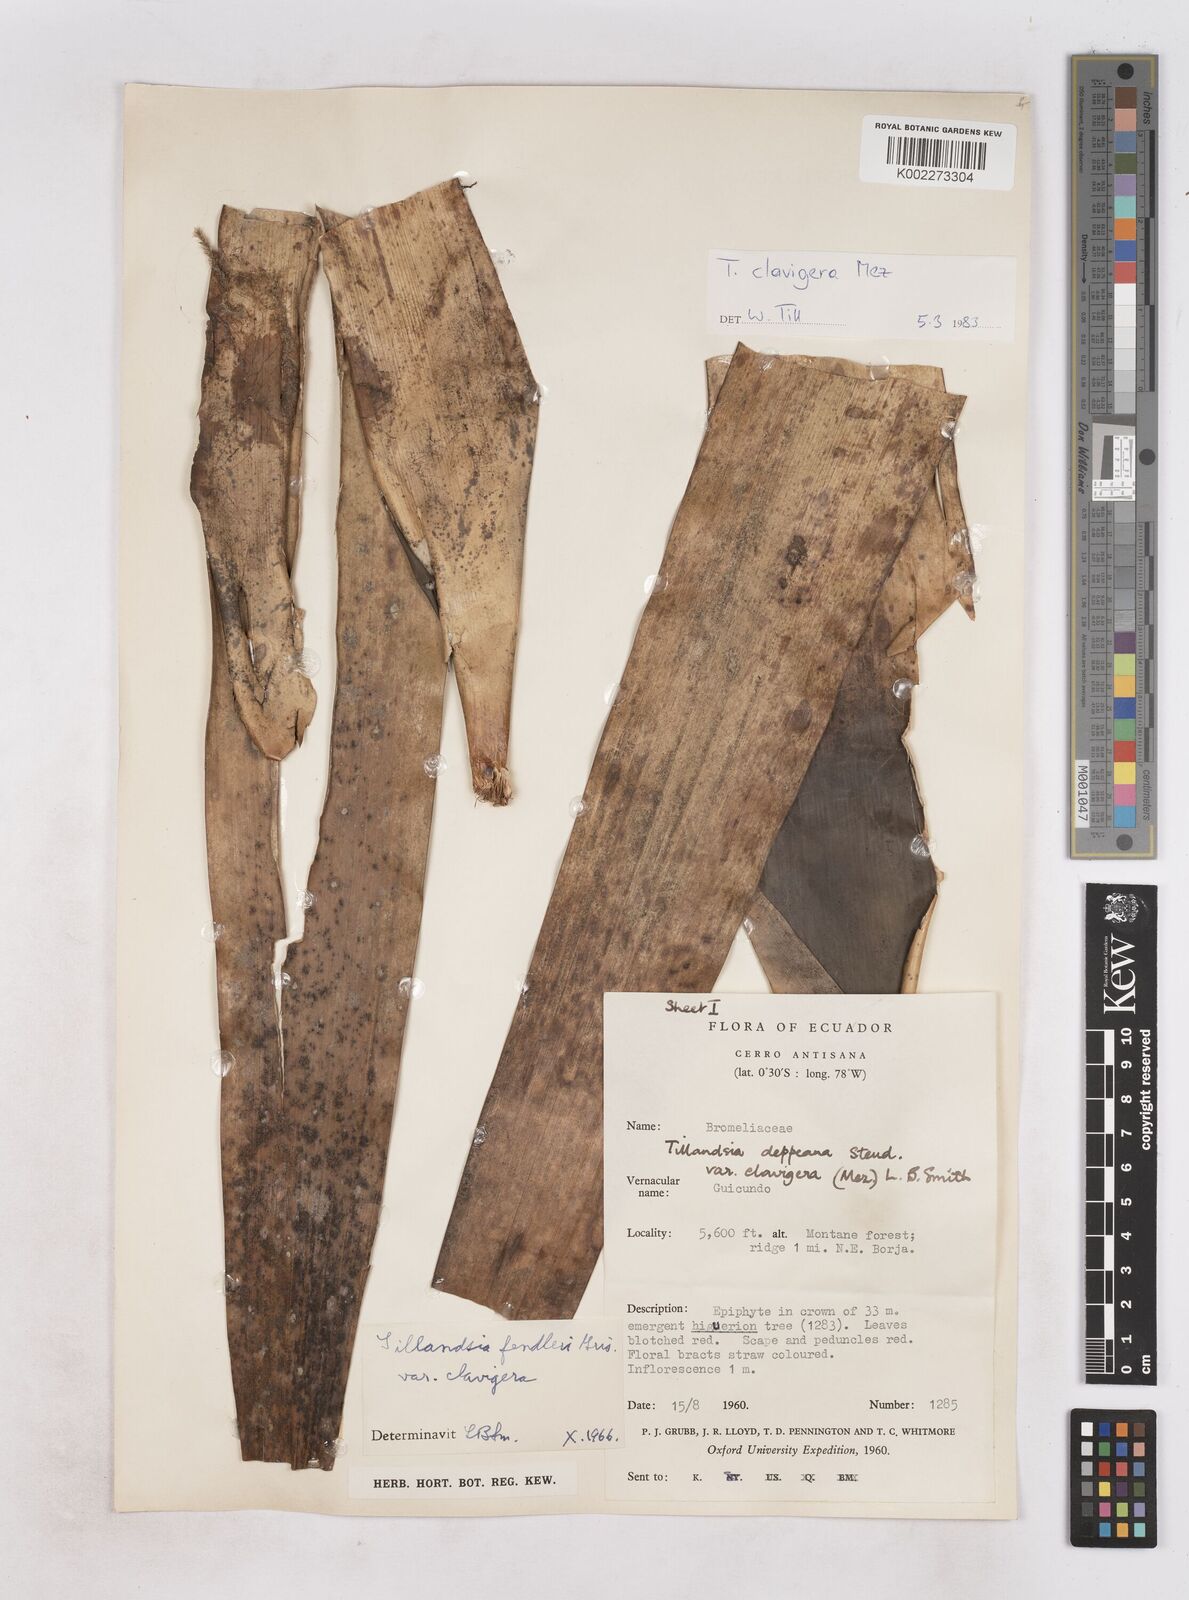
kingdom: Plantae
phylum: Tracheophyta
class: Liliopsida
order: Poales
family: Bromeliaceae
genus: Tillandsia
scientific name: Tillandsia clavigera
